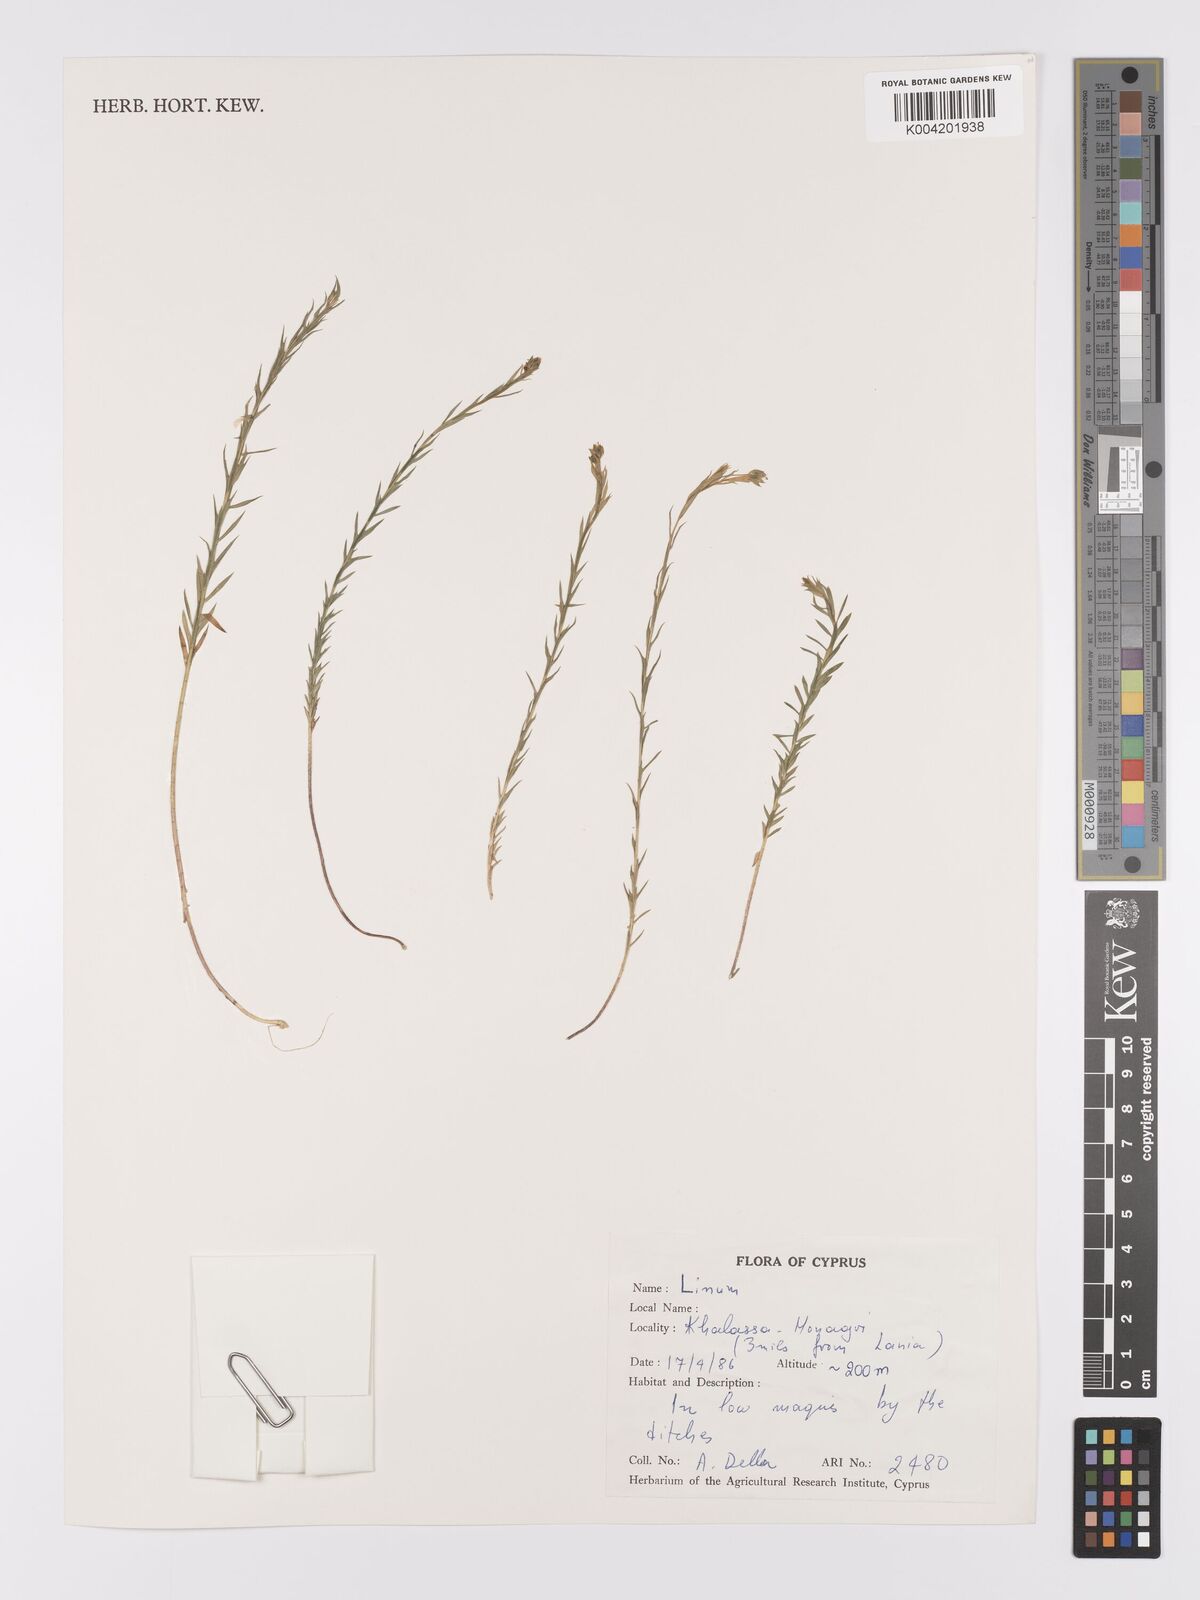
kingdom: Plantae
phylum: Tracheophyta
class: Magnoliopsida
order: Malpighiales
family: Linaceae
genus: Linum
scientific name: Linum
